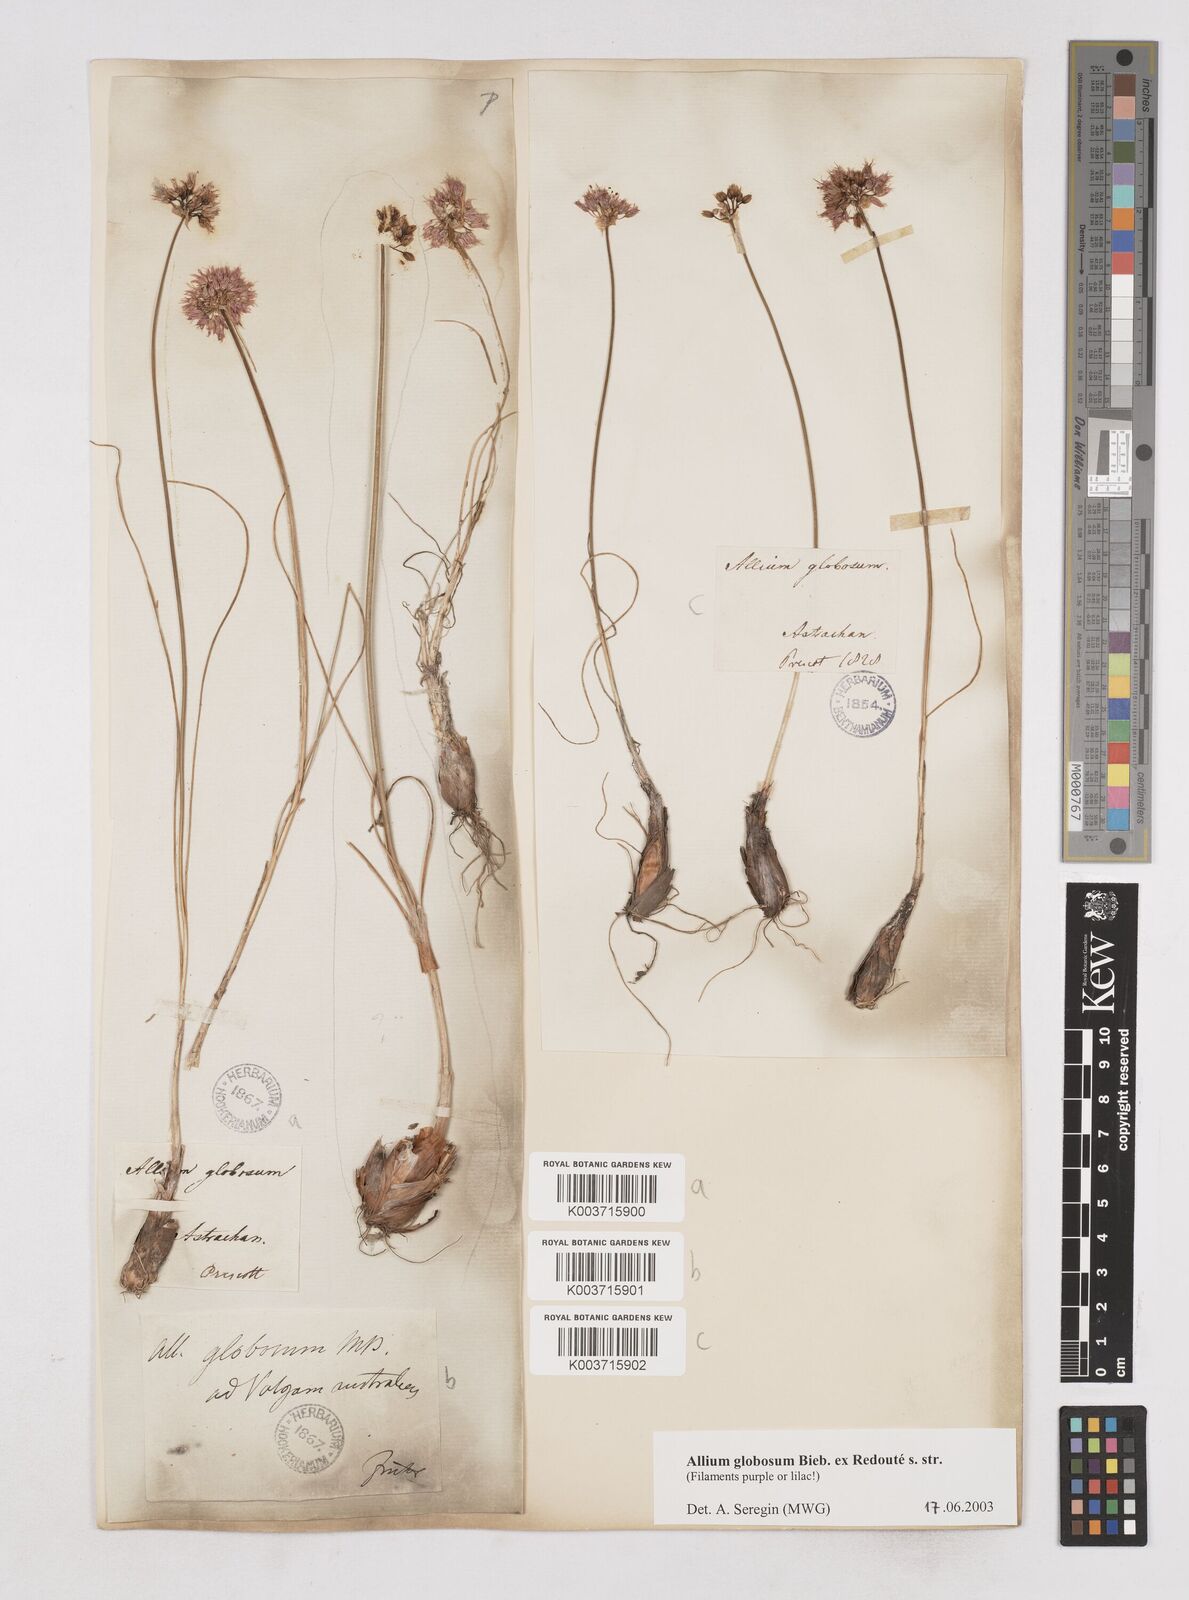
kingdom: Plantae
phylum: Tracheophyta
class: Liliopsida
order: Asparagales
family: Amaryllidaceae
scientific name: Amaryllidaceae
